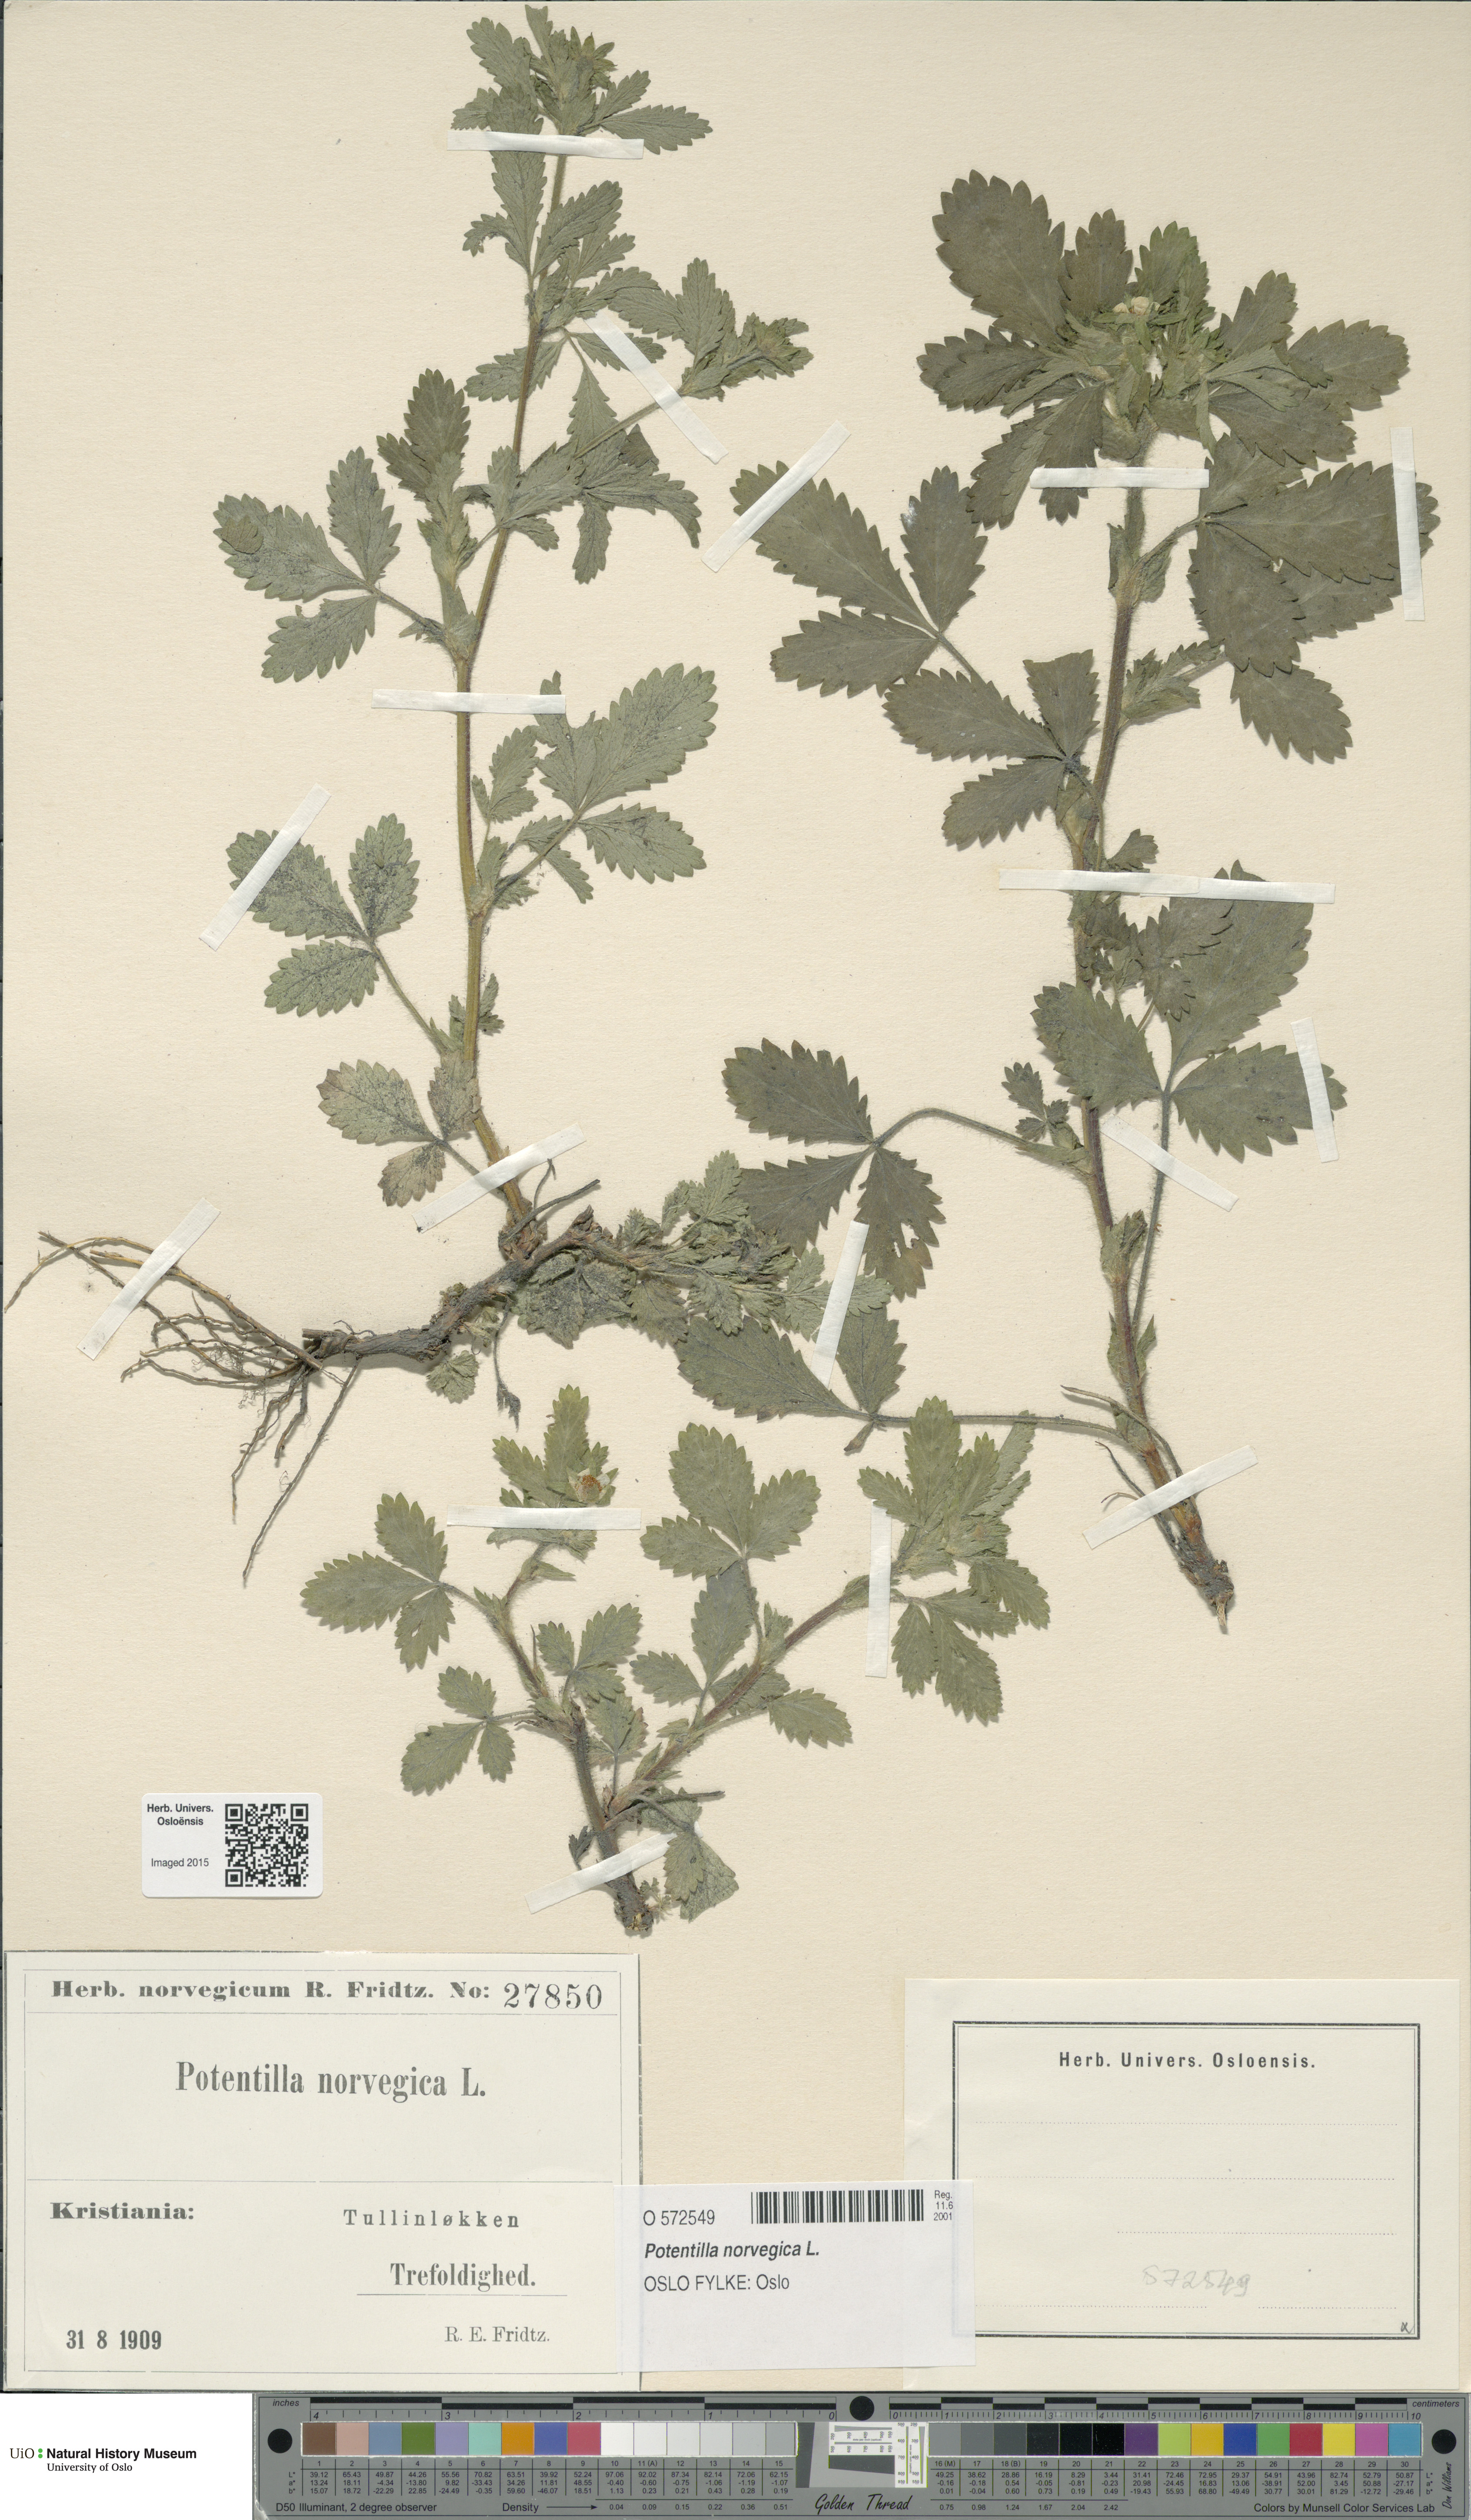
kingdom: Plantae
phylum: Tracheophyta
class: Magnoliopsida
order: Rosales
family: Rosaceae
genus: Potentilla
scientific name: Potentilla norvegica
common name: Ternate-leaved cinquefoil
